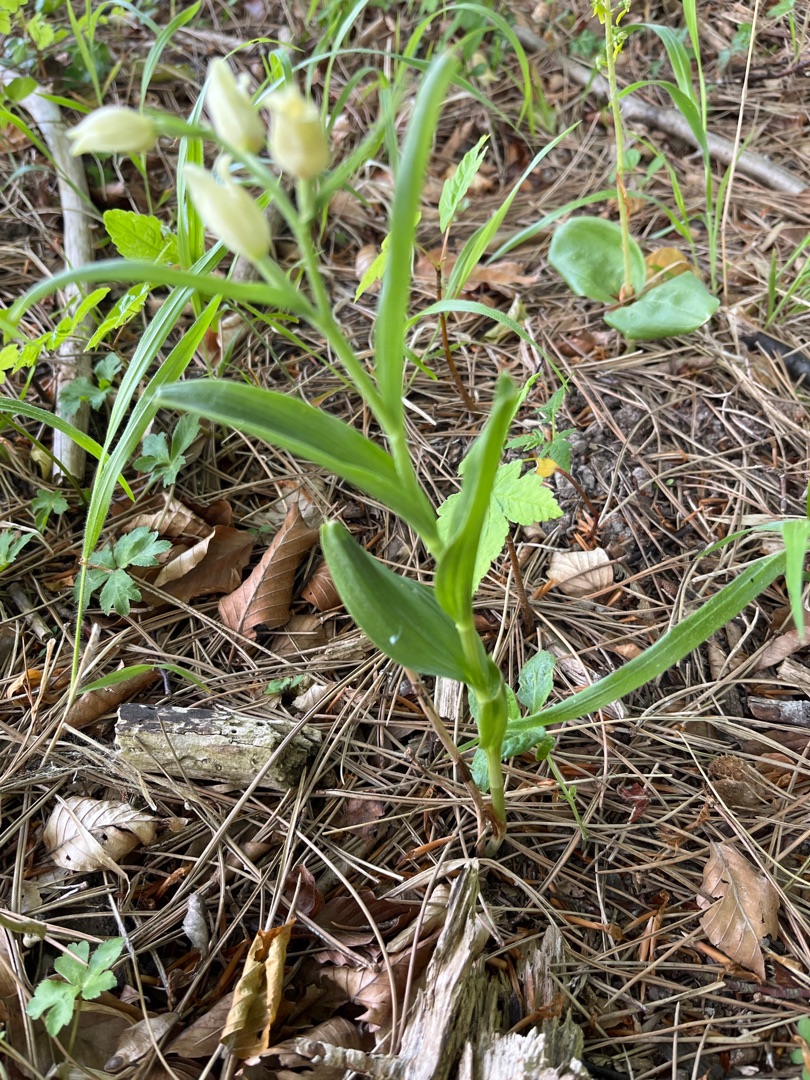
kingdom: Plantae
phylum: Tracheophyta
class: Liliopsida
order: Asparagales
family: Orchidaceae
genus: Cephalanthera
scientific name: Cephalanthera damasonium
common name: Hvidgul skovlilje
